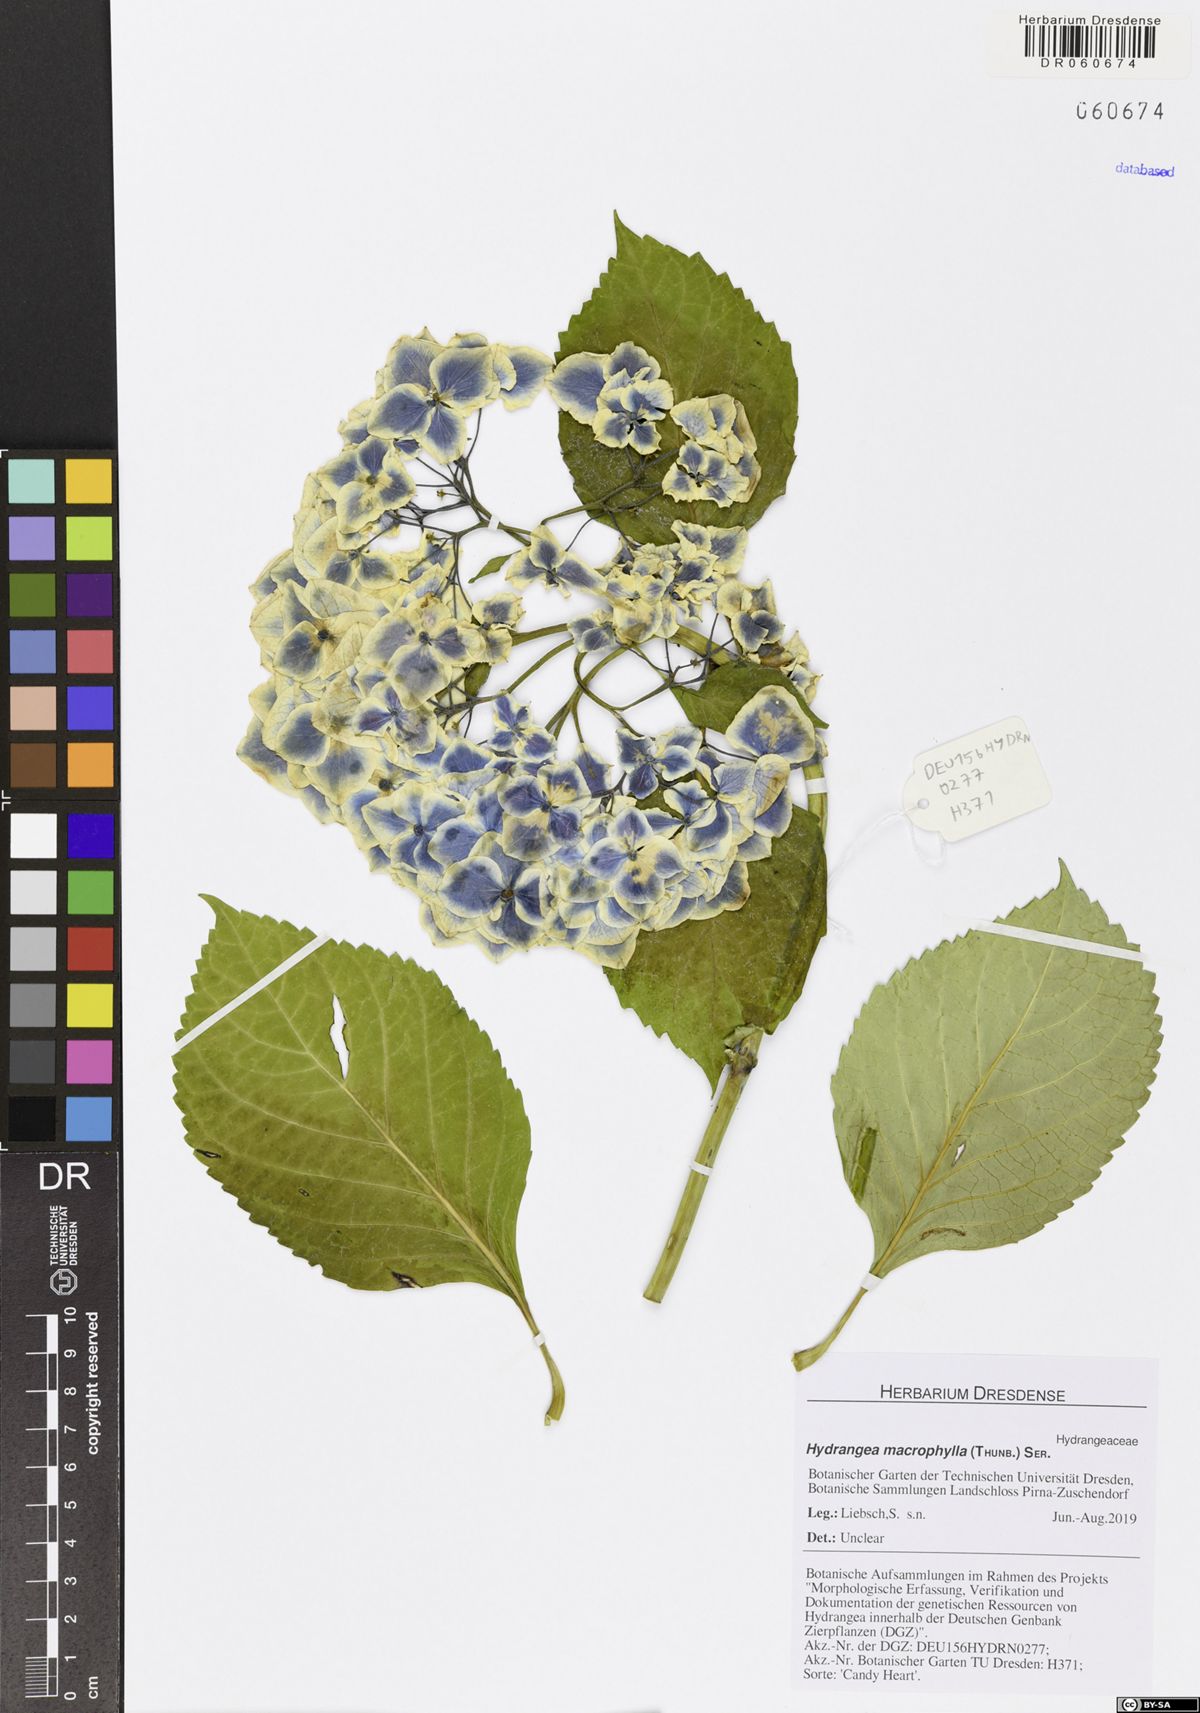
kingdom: Plantae
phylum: Tracheophyta
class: Magnoliopsida
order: Cornales
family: Hydrangeaceae
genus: Hydrangea
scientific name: Hydrangea macrophylla
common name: Hydrangea
